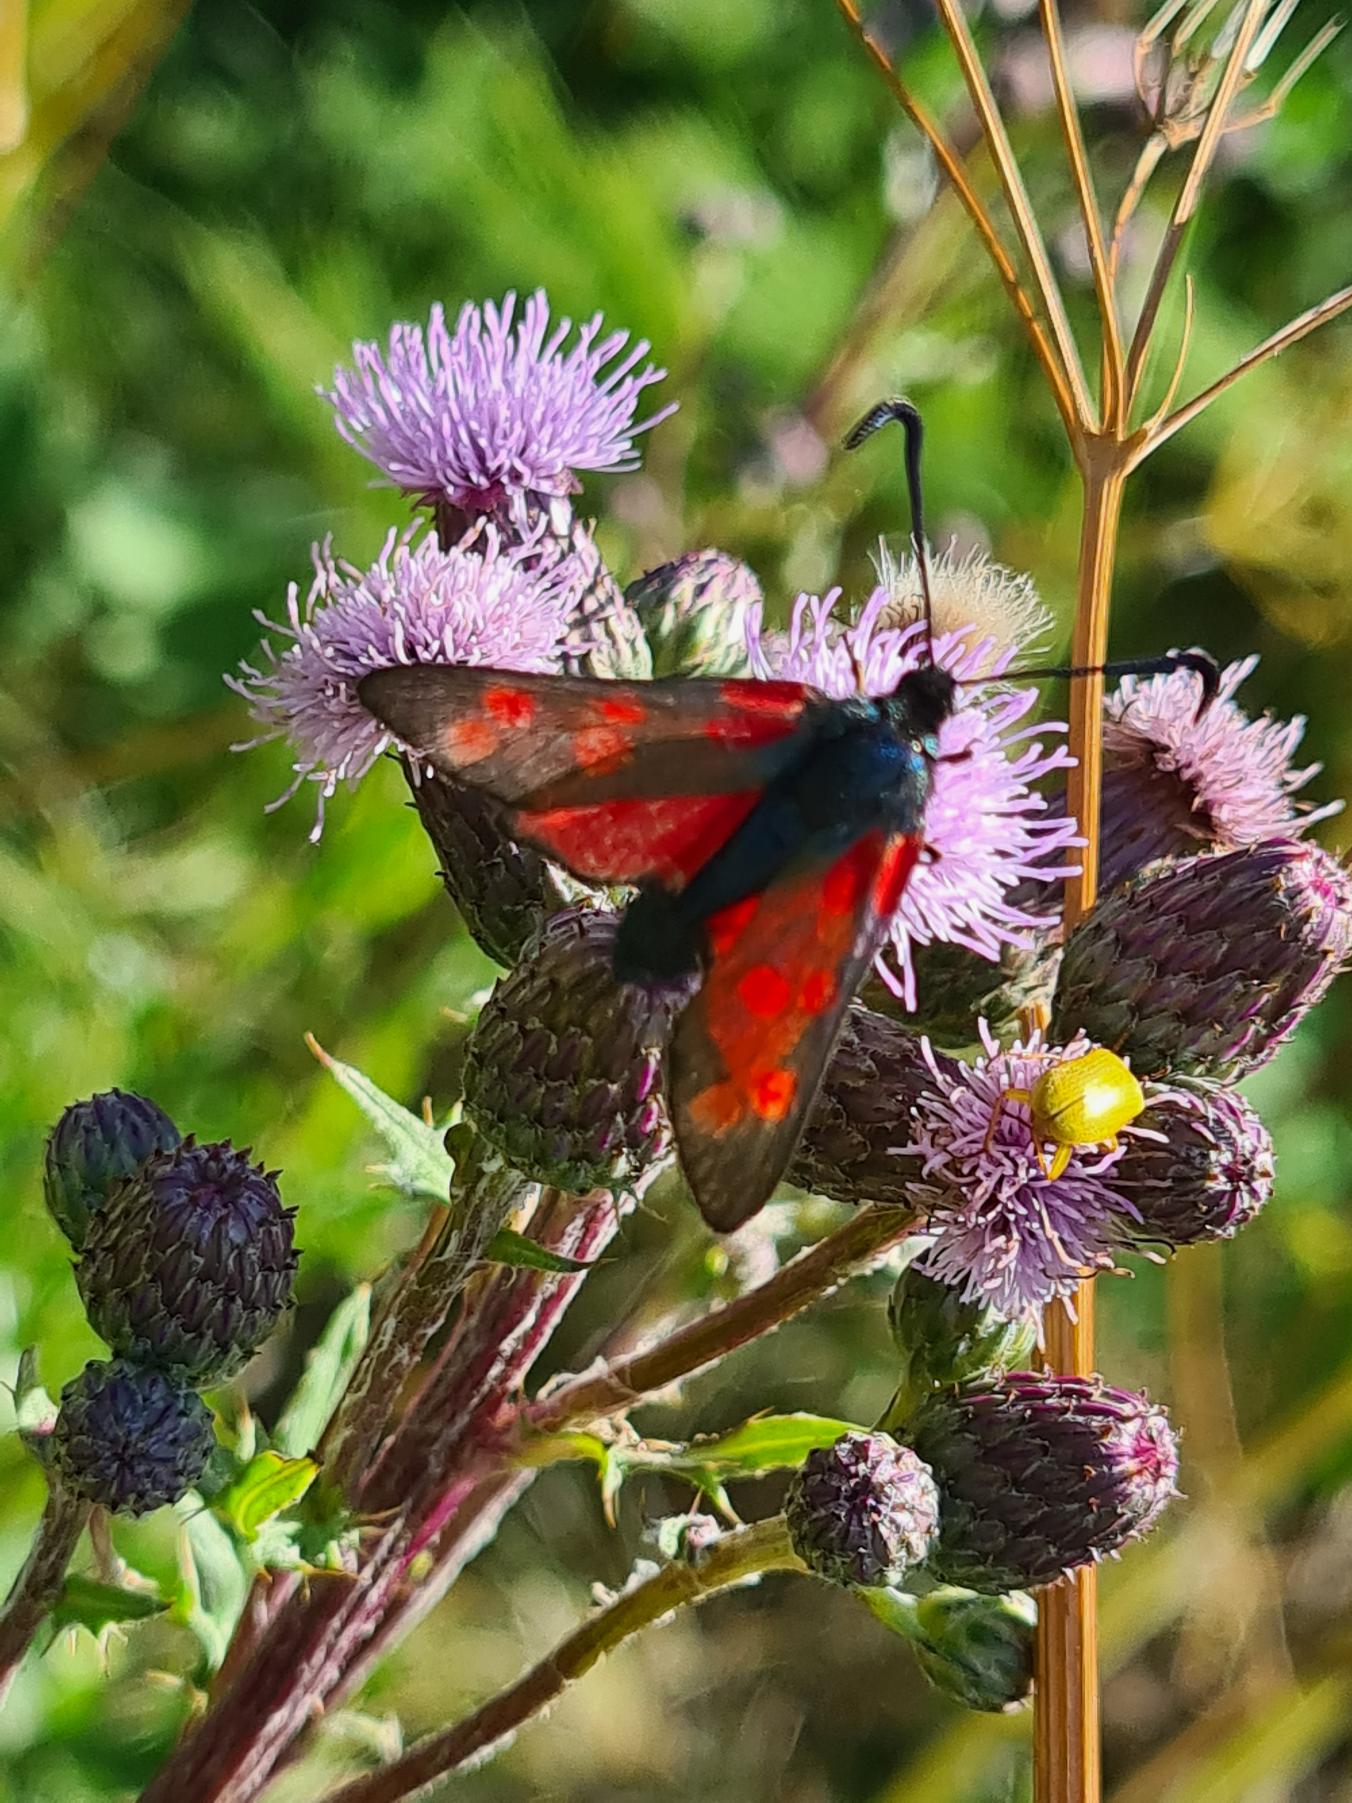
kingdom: Animalia
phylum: Arthropoda
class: Insecta
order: Lepidoptera
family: Zygaenidae
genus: Zygaena
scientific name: Zygaena filipendulae
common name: Seksplettet køllesværmer
